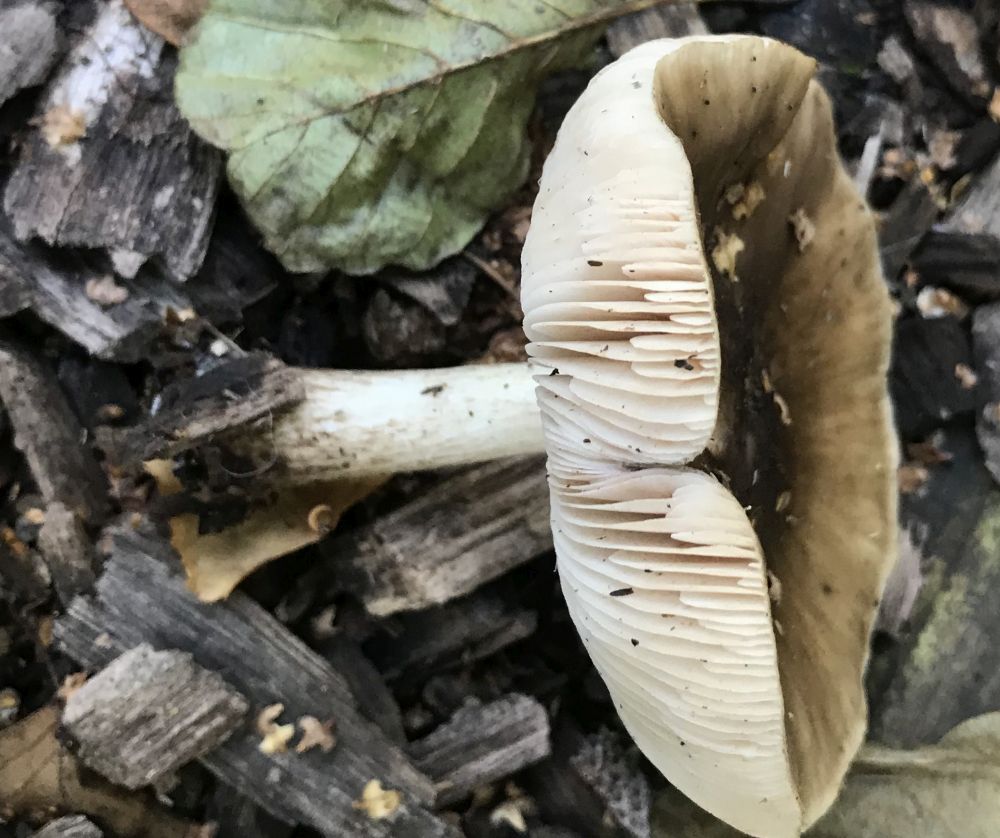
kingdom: Fungi
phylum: Basidiomycota
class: Agaricomycetes
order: Agaricales
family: Pluteaceae
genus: Pluteus
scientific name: Pluteus cervinus
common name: sodfarvet skærmhat
